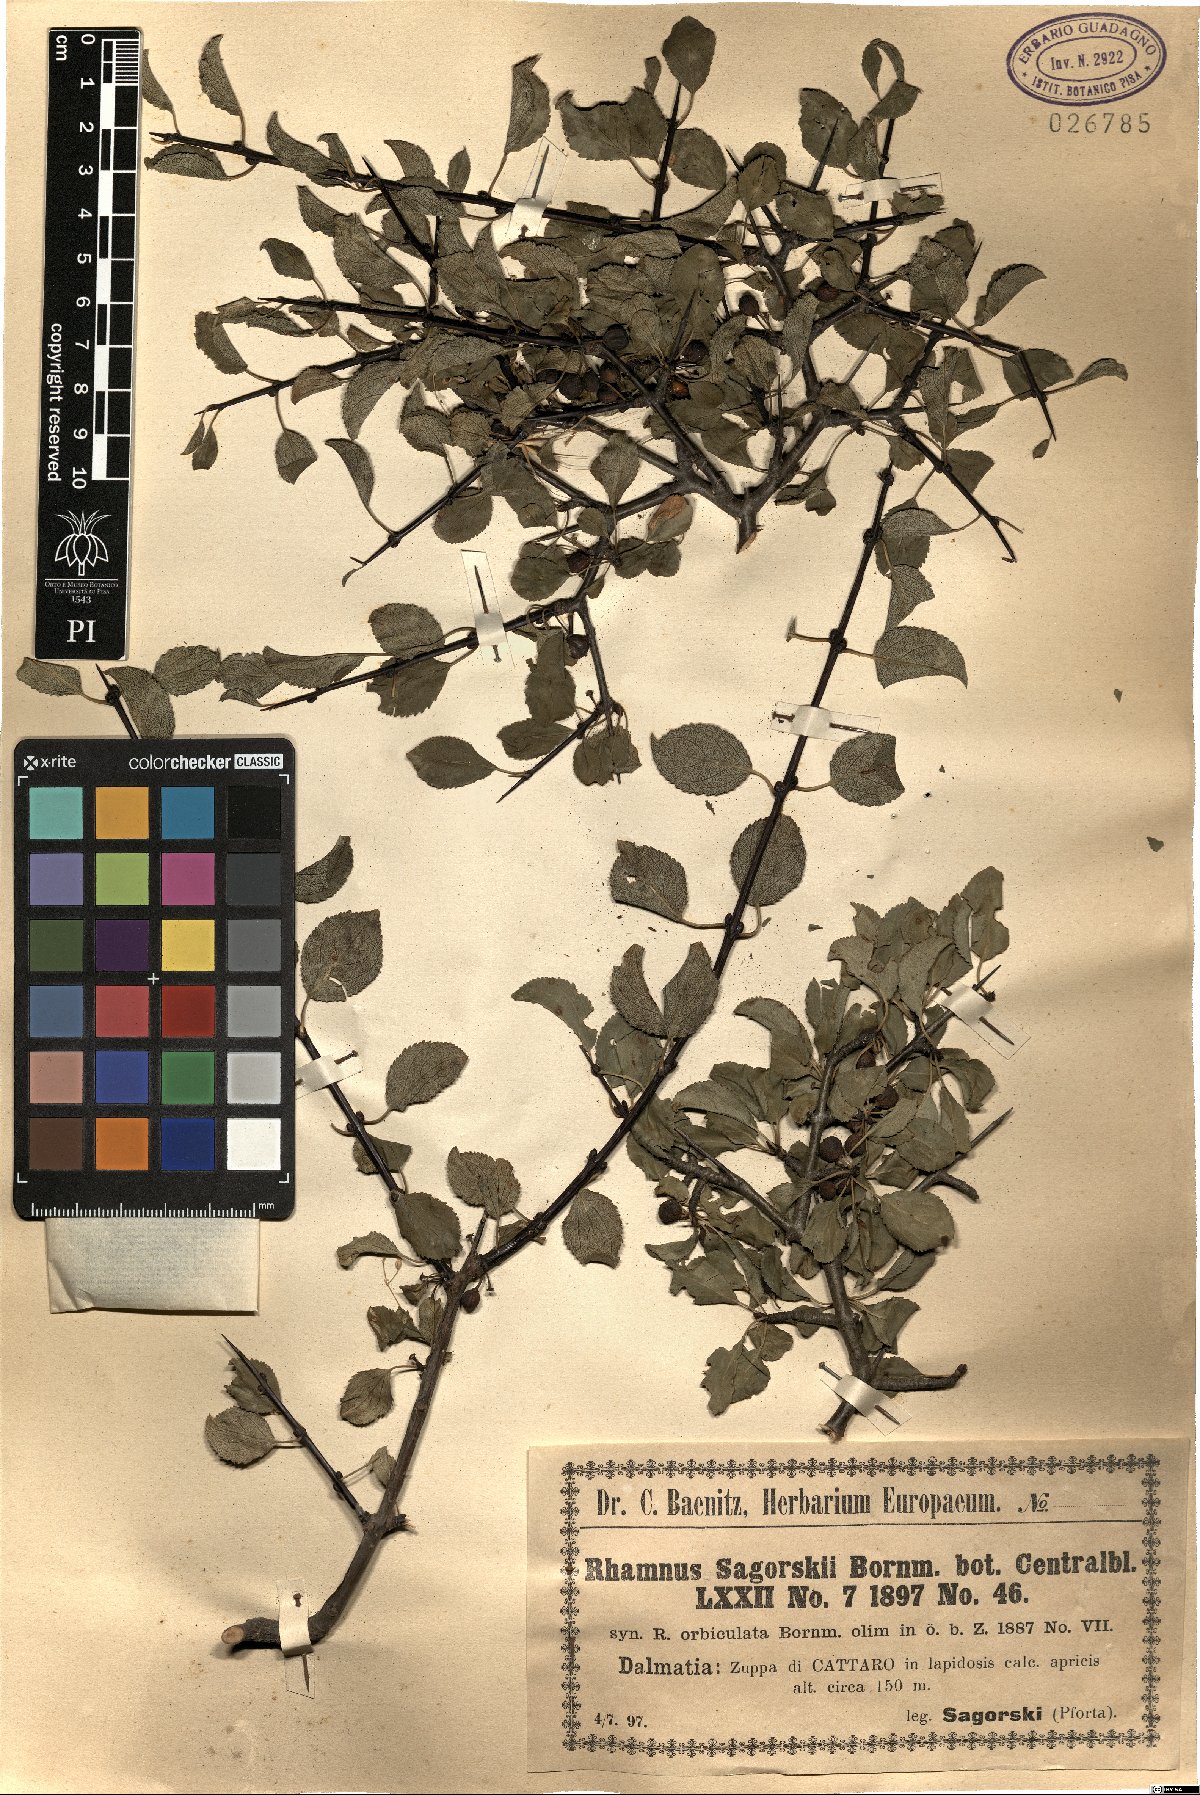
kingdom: Plantae
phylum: Tracheophyta
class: Magnoliopsida
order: Rosales
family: Rhamnaceae
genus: Rhamnus
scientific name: Rhamnus orbiculata
